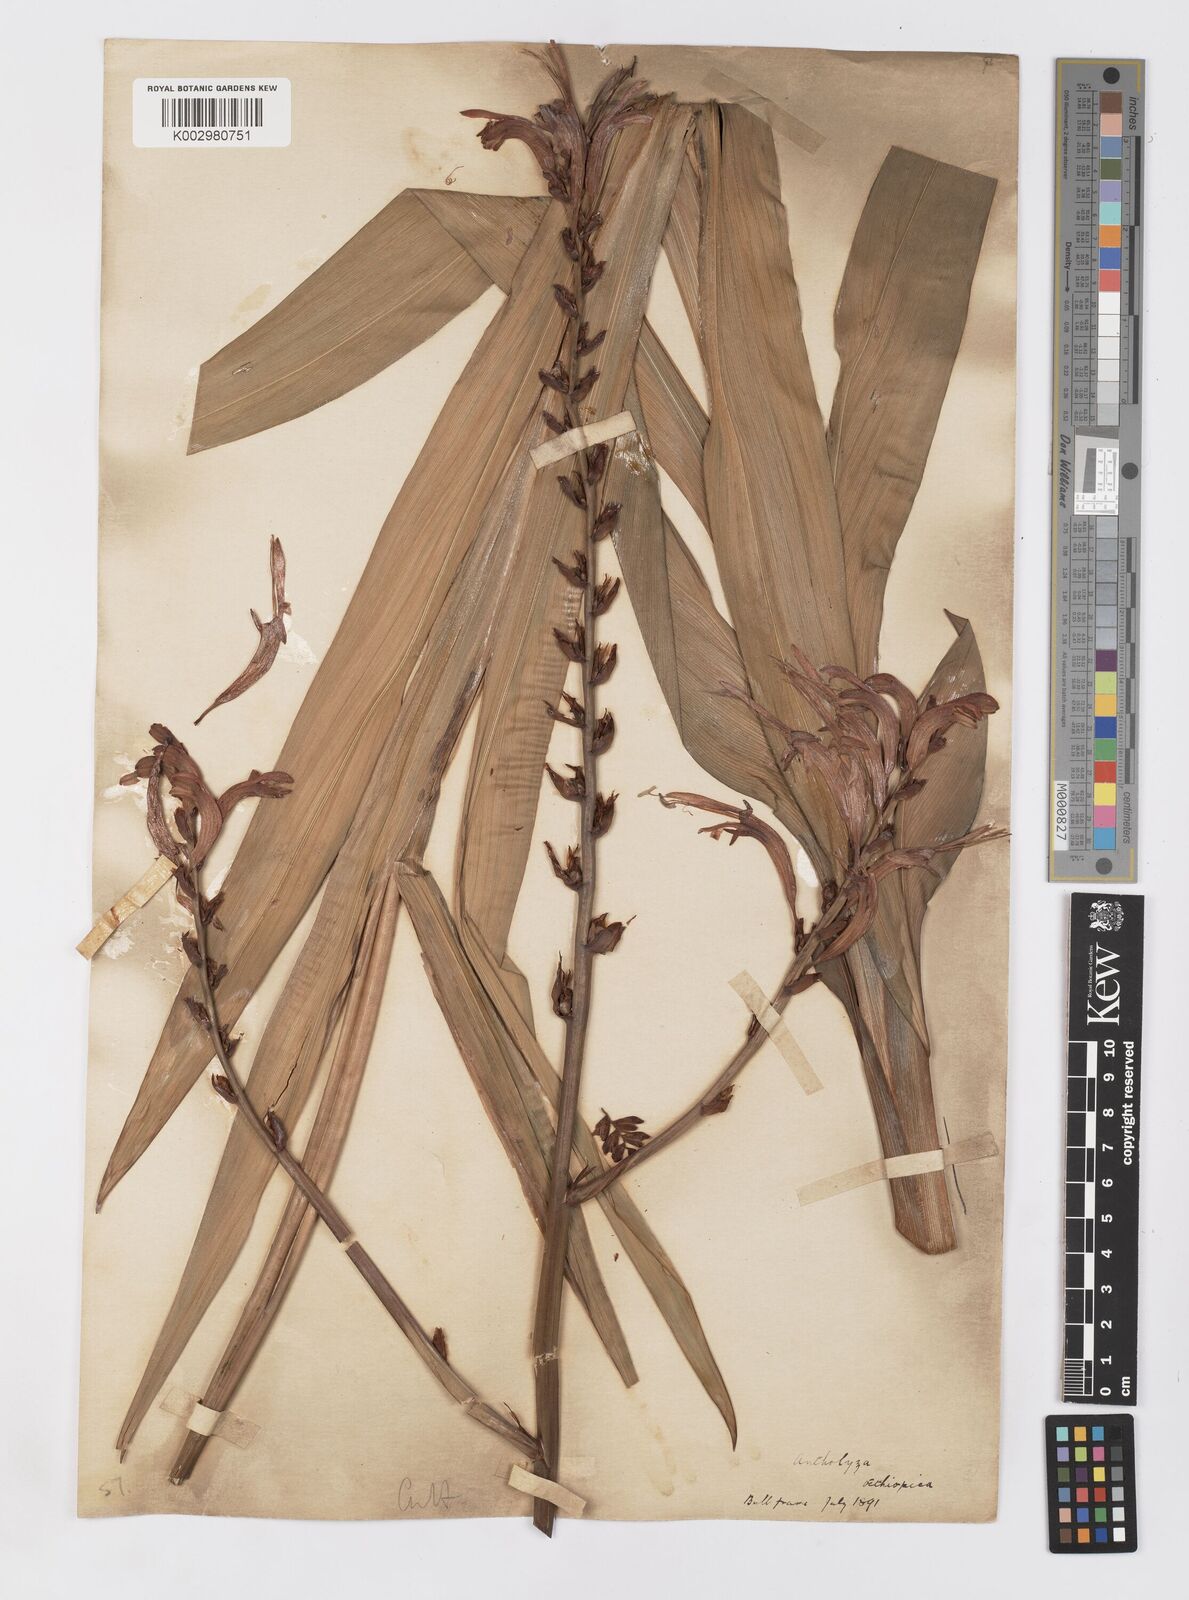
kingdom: Plantae
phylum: Tracheophyta
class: Liliopsida
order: Asparagales
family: Iridaceae
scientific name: Iridaceae
